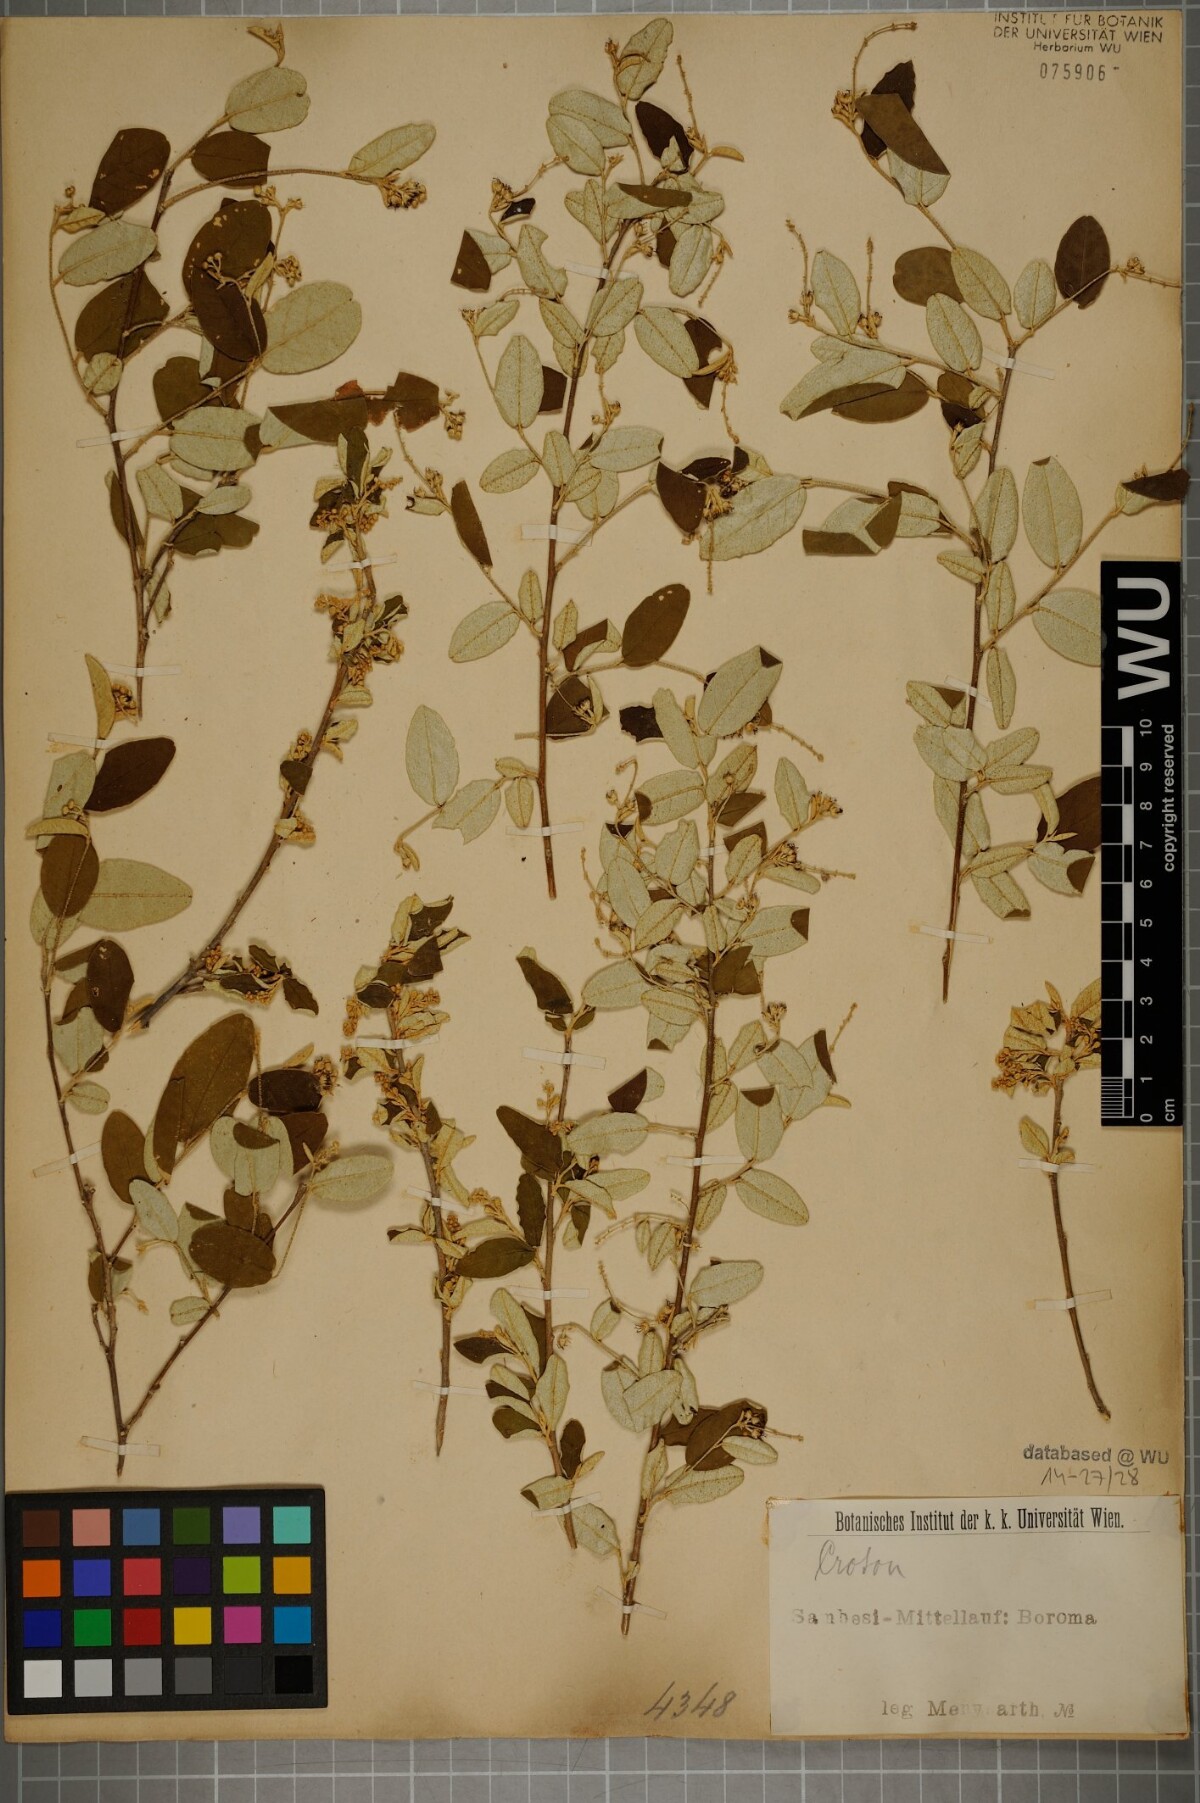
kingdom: Plantae
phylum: Tracheophyta
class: Magnoliopsida
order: Malpighiales
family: Euphorbiaceae
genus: Croton
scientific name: Croton
